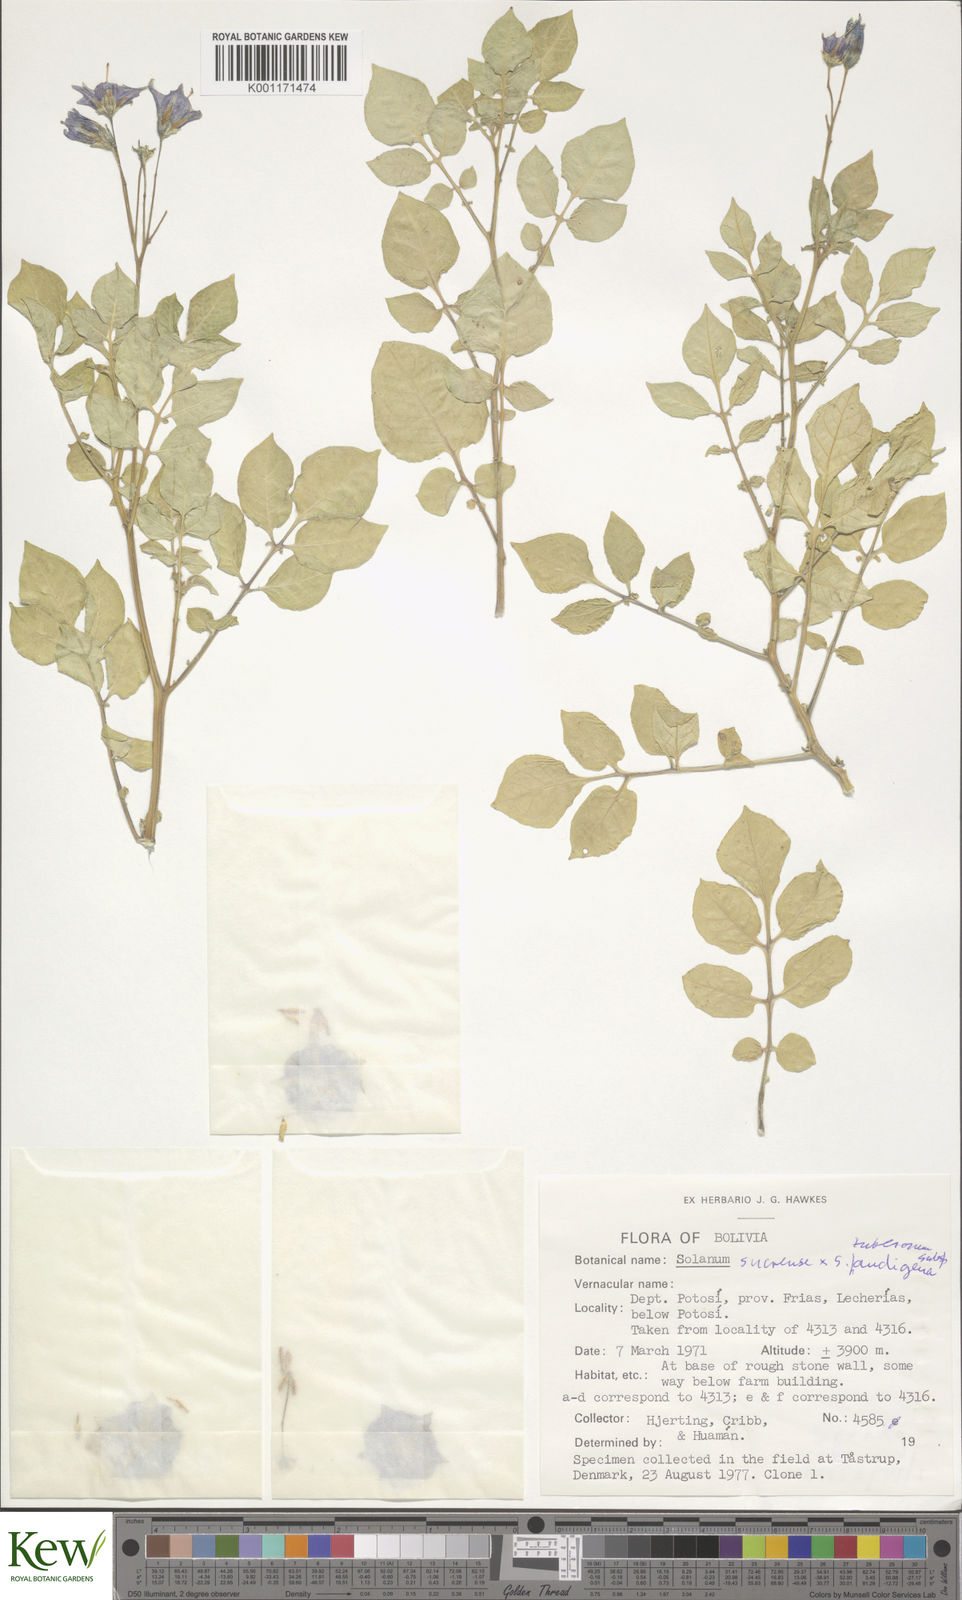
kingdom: Plantae
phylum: Tracheophyta
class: Magnoliopsida
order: Solanales
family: Solanaceae
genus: Solanum
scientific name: Solanum tuberosum
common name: Potato
